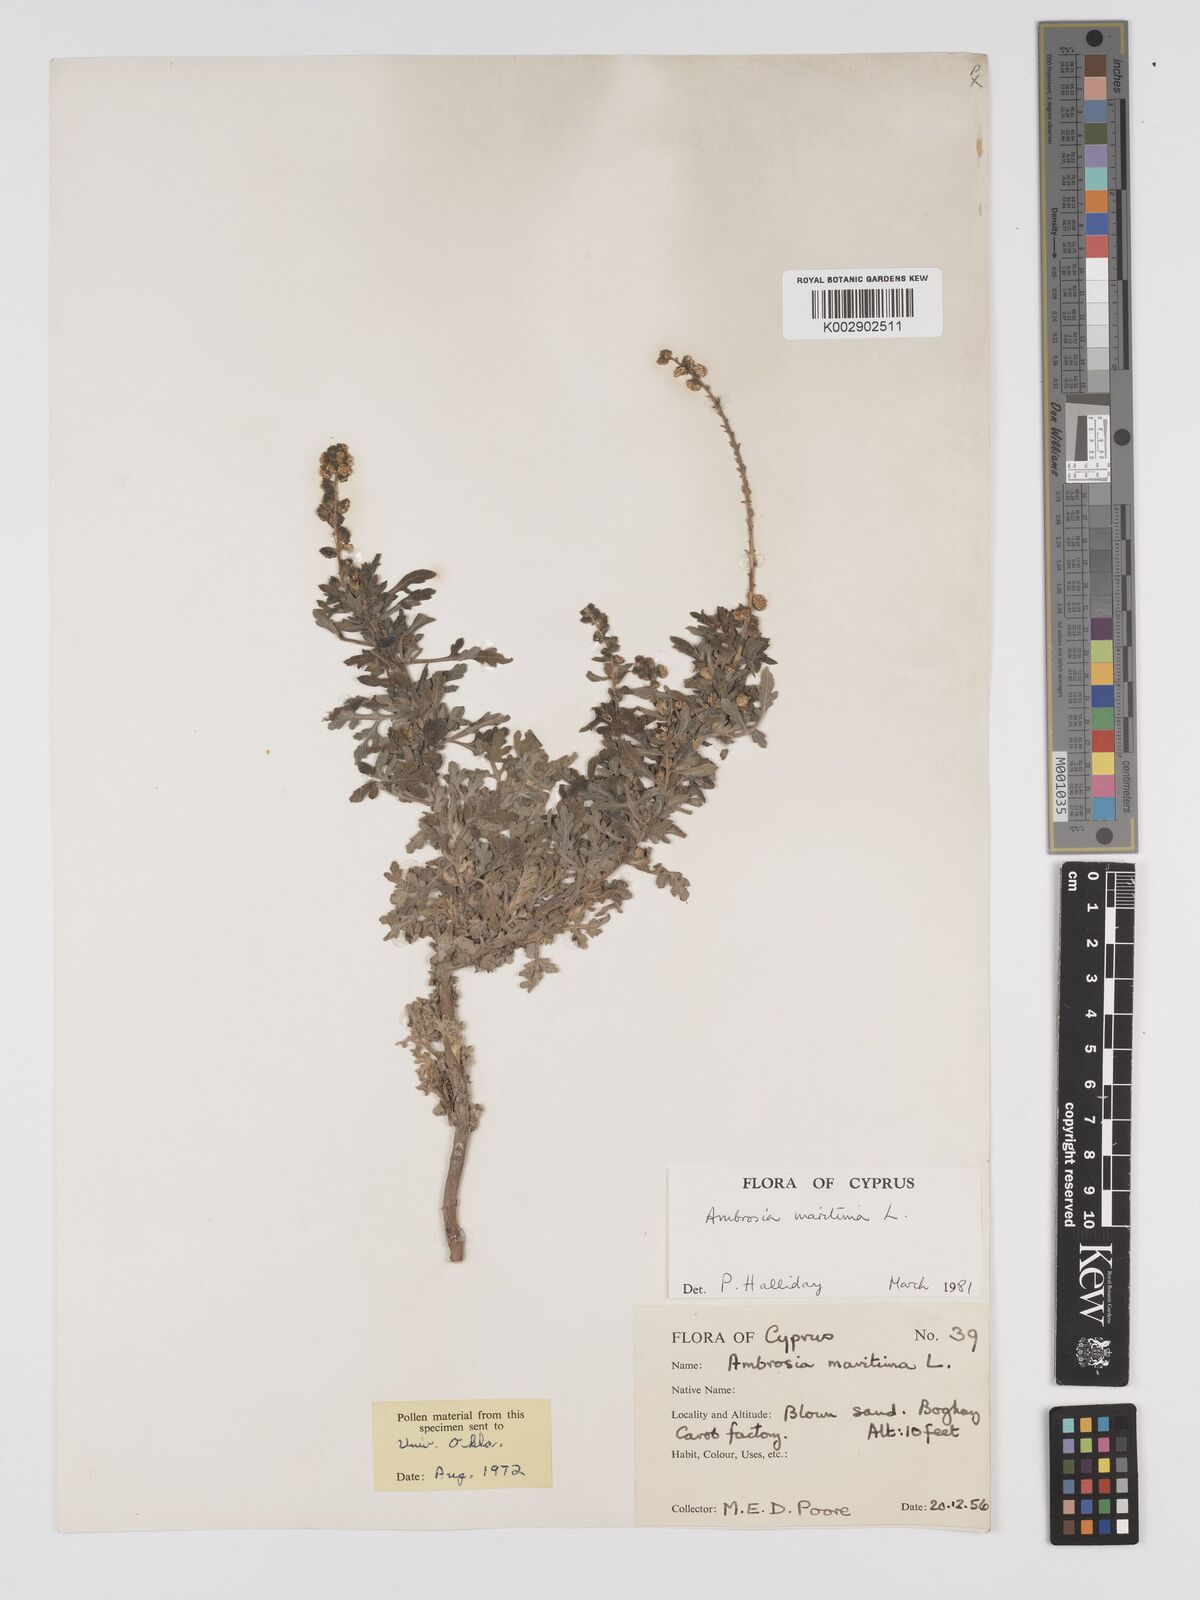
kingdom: Plantae
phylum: Tracheophyta
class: Magnoliopsida
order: Asterales
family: Asteraceae
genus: Ambrosia
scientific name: Ambrosia maritima
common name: Sea ambrosia
